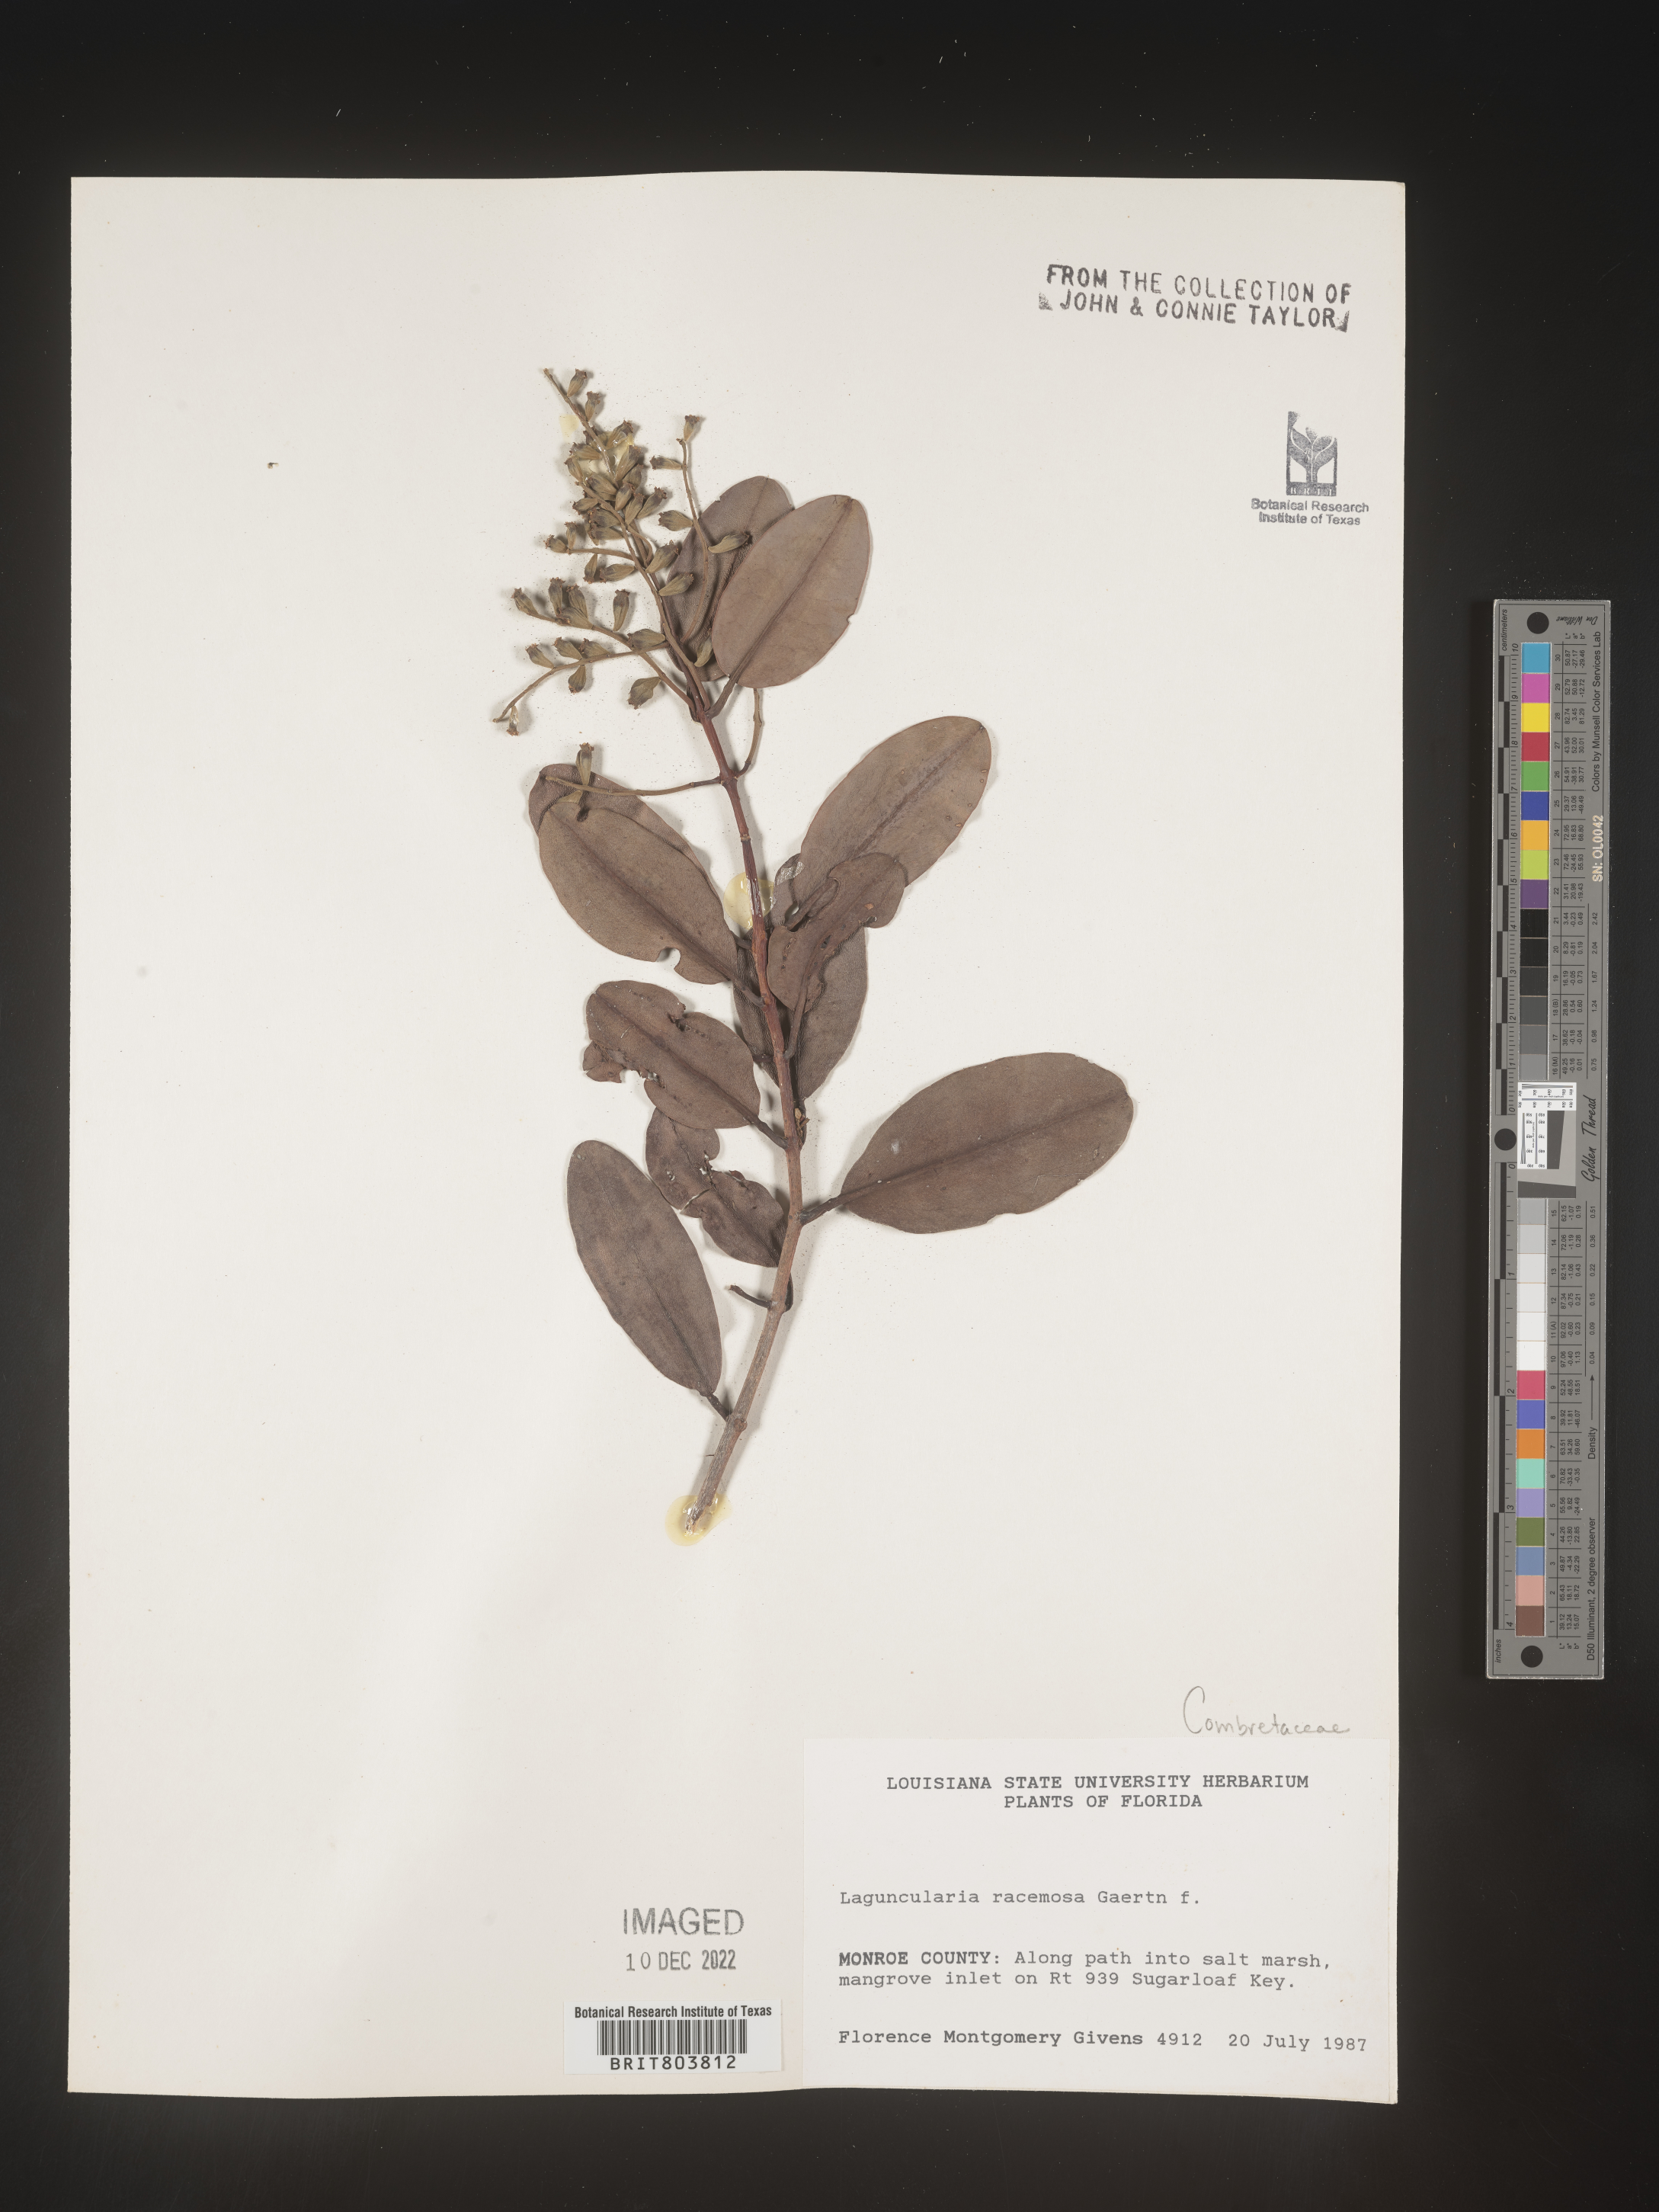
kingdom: Plantae
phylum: Tracheophyta
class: Magnoliopsida
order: Myrtales
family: Combretaceae
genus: Laguncularia
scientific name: Laguncularia
